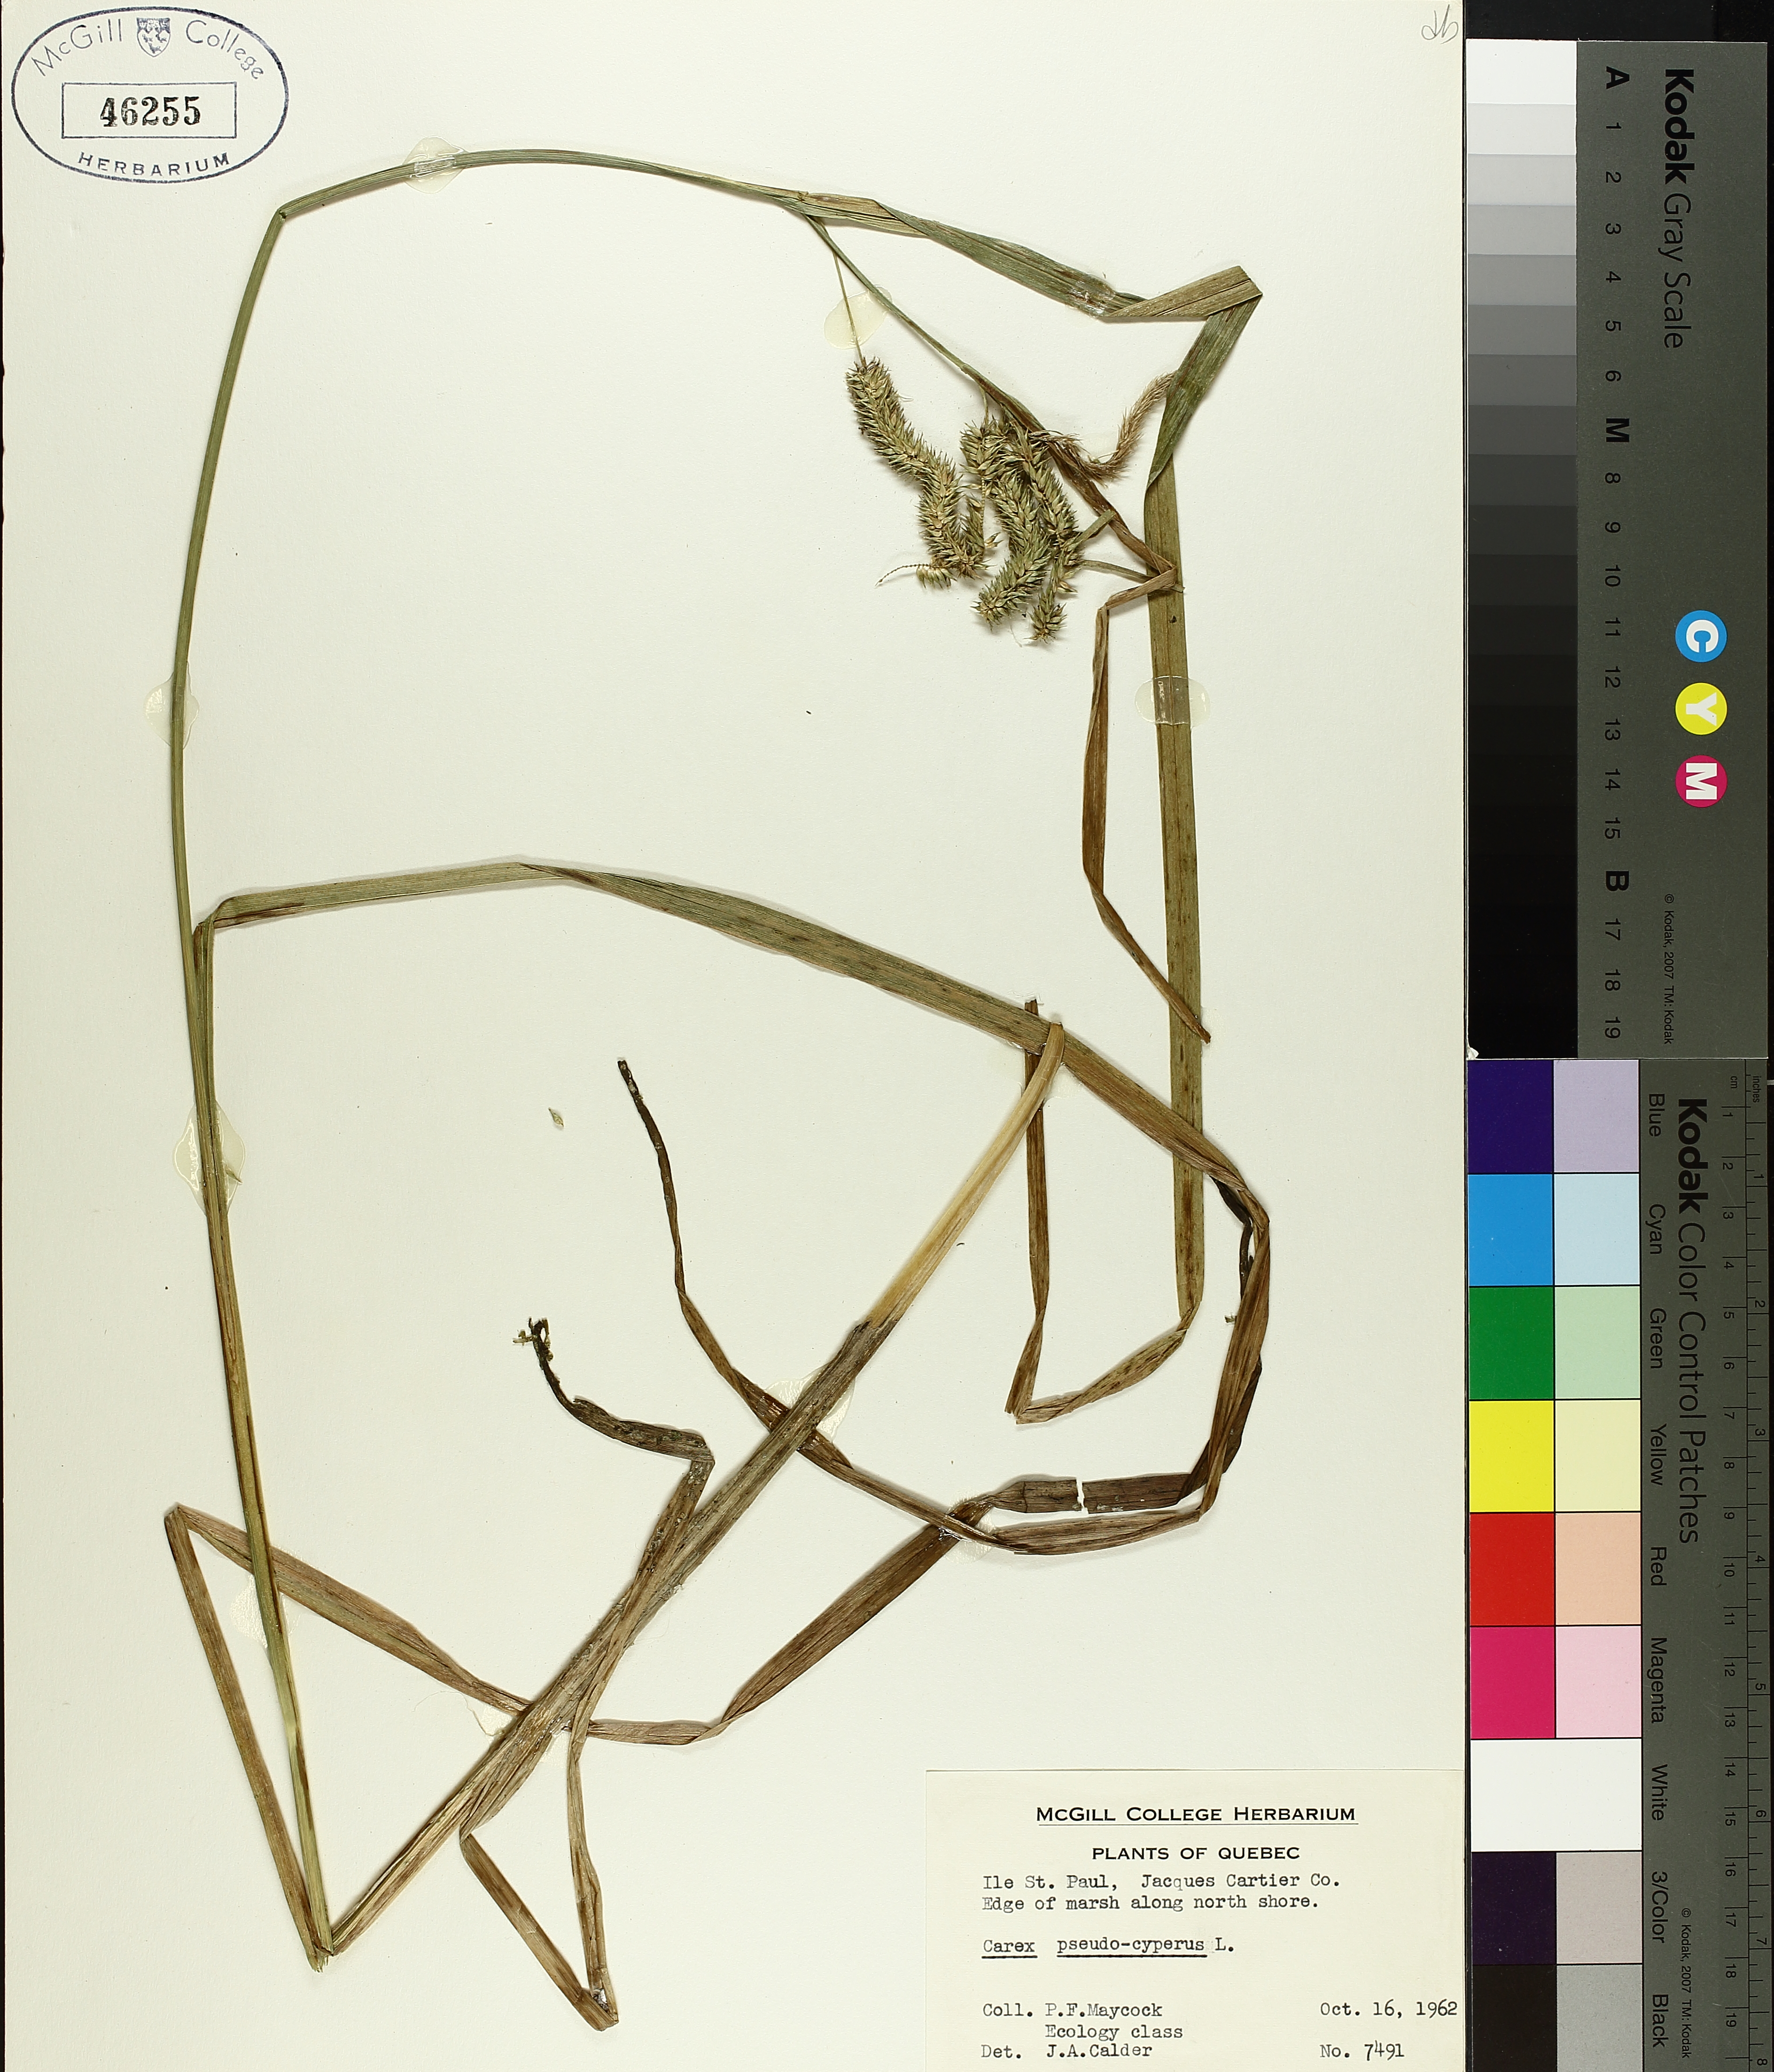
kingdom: Plantae
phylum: Tracheophyta
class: Liliopsida
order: Poales
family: Cyperaceae
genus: Carex
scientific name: Carex pseudocyperus
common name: Cyperus sedge
